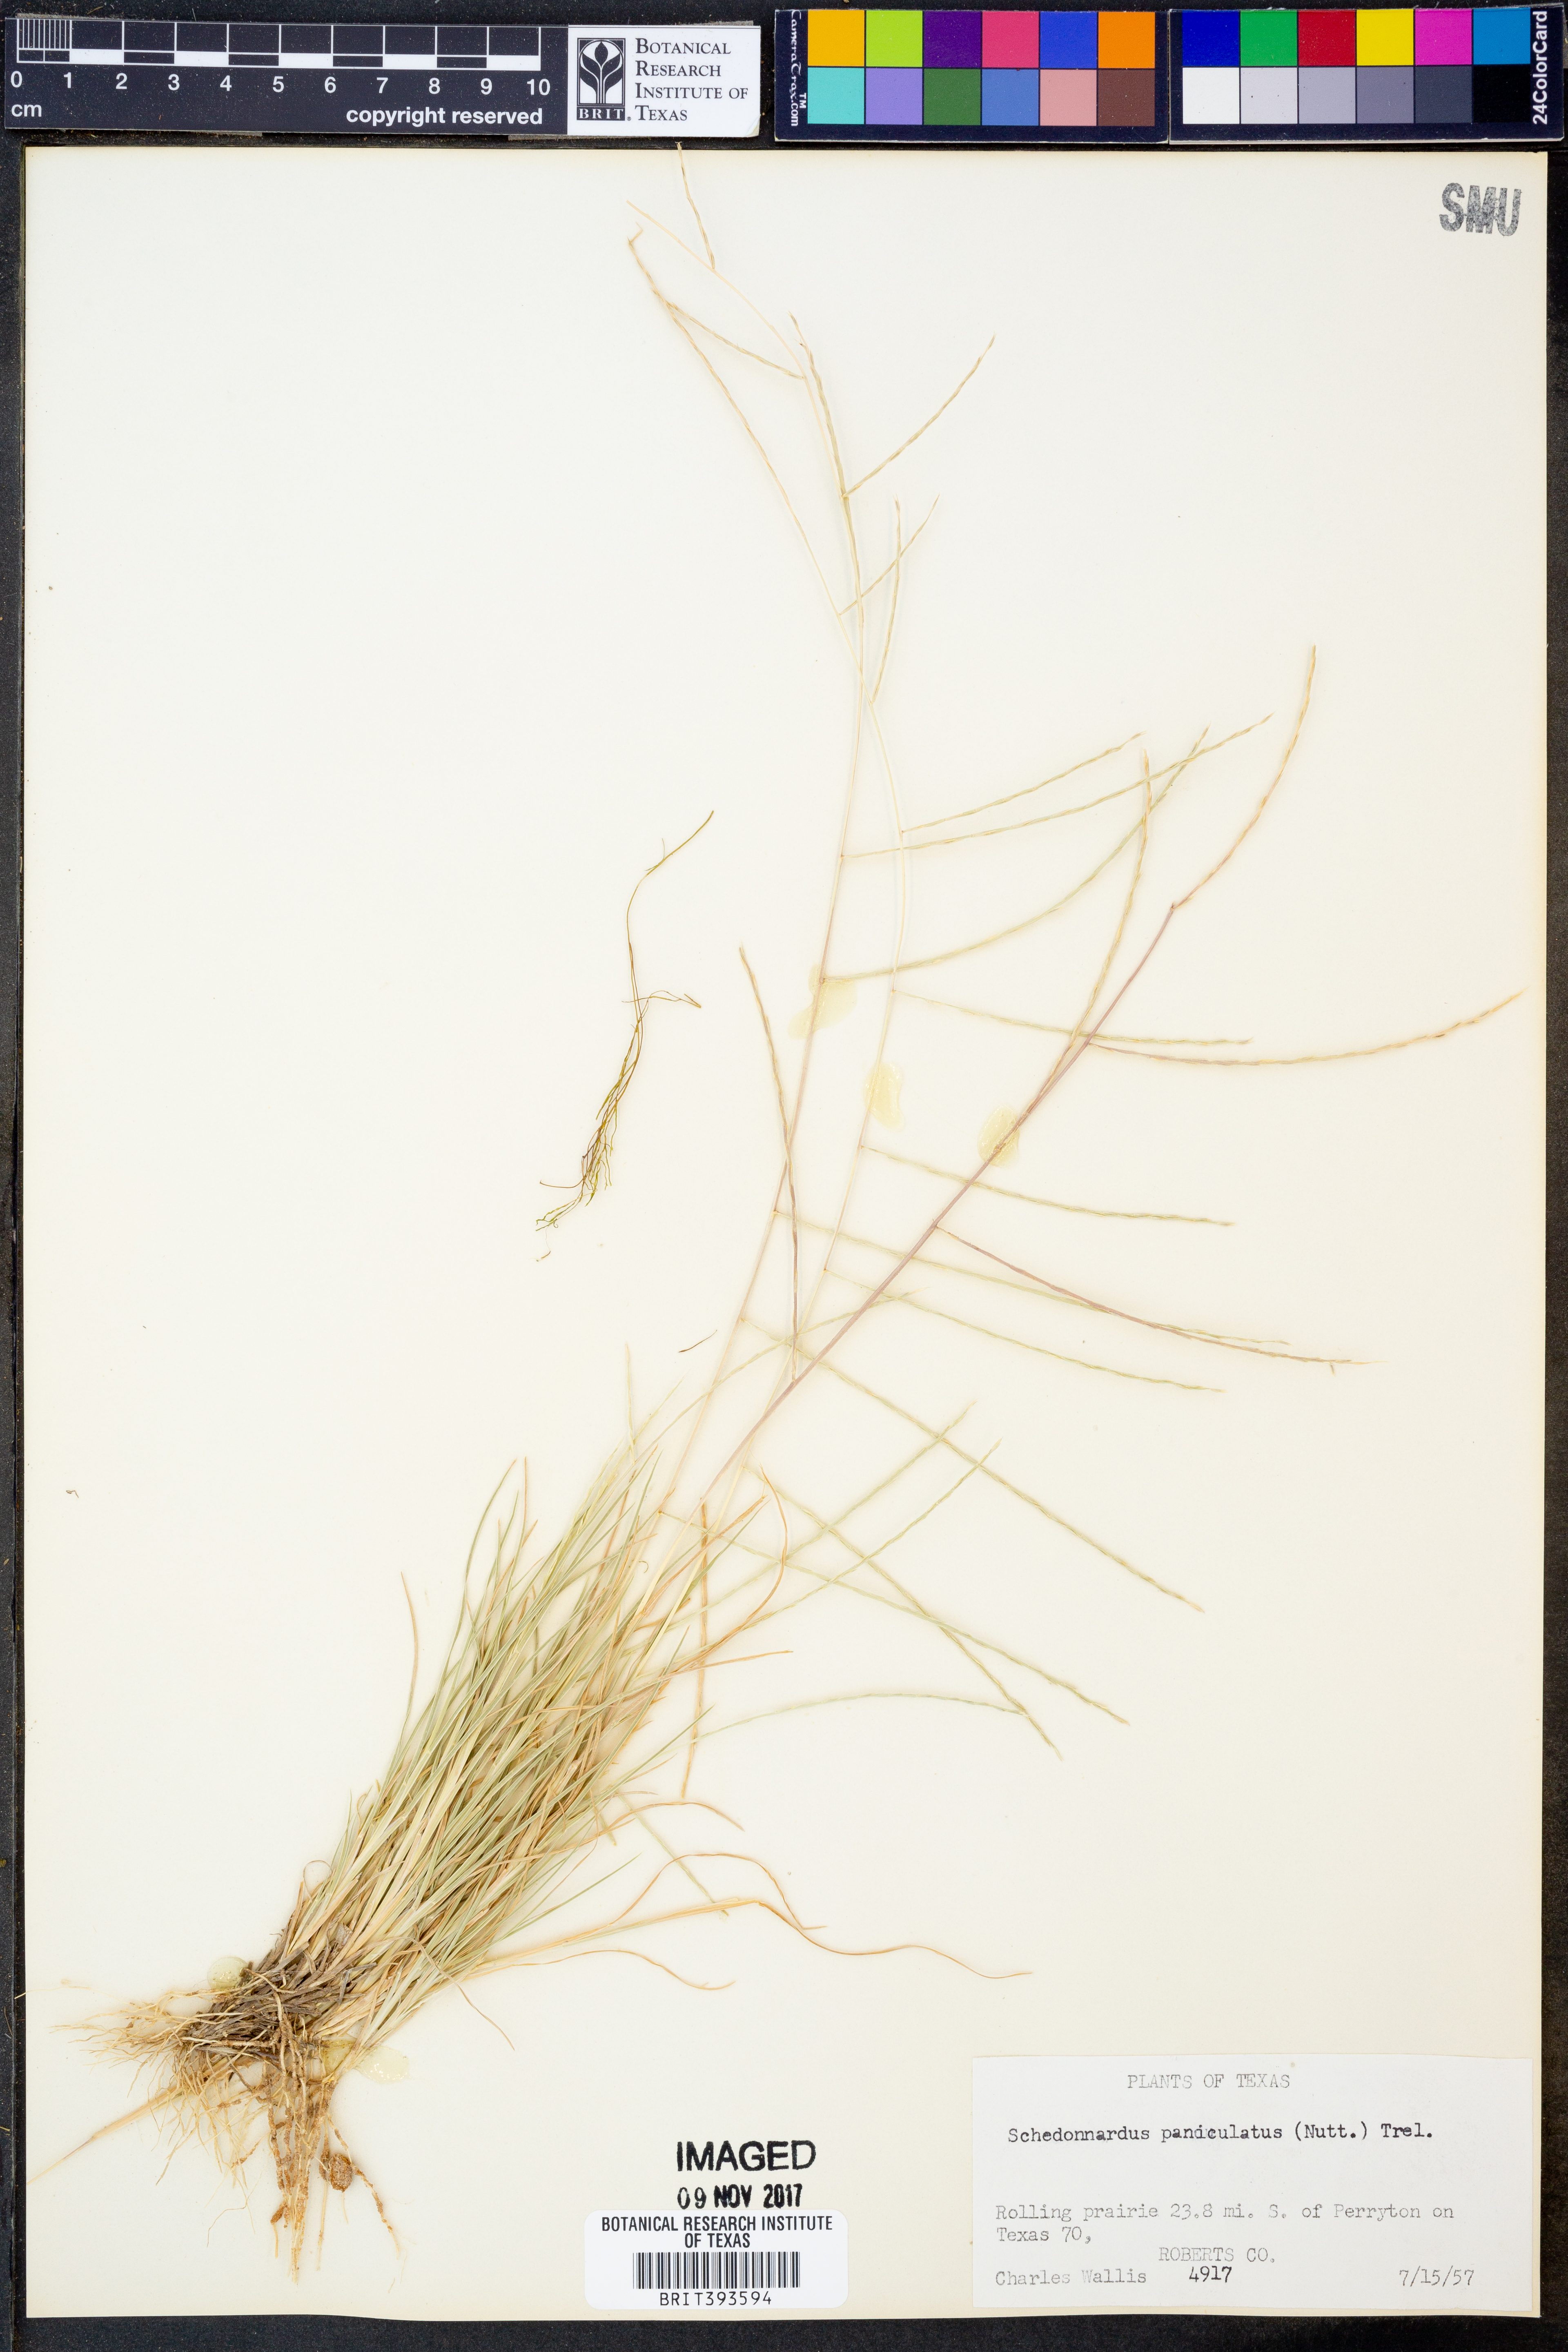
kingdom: Plantae
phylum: Tracheophyta
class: Liliopsida
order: Poales
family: Poaceae
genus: Muhlenbergia
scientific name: Muhlenbergia paniculata
